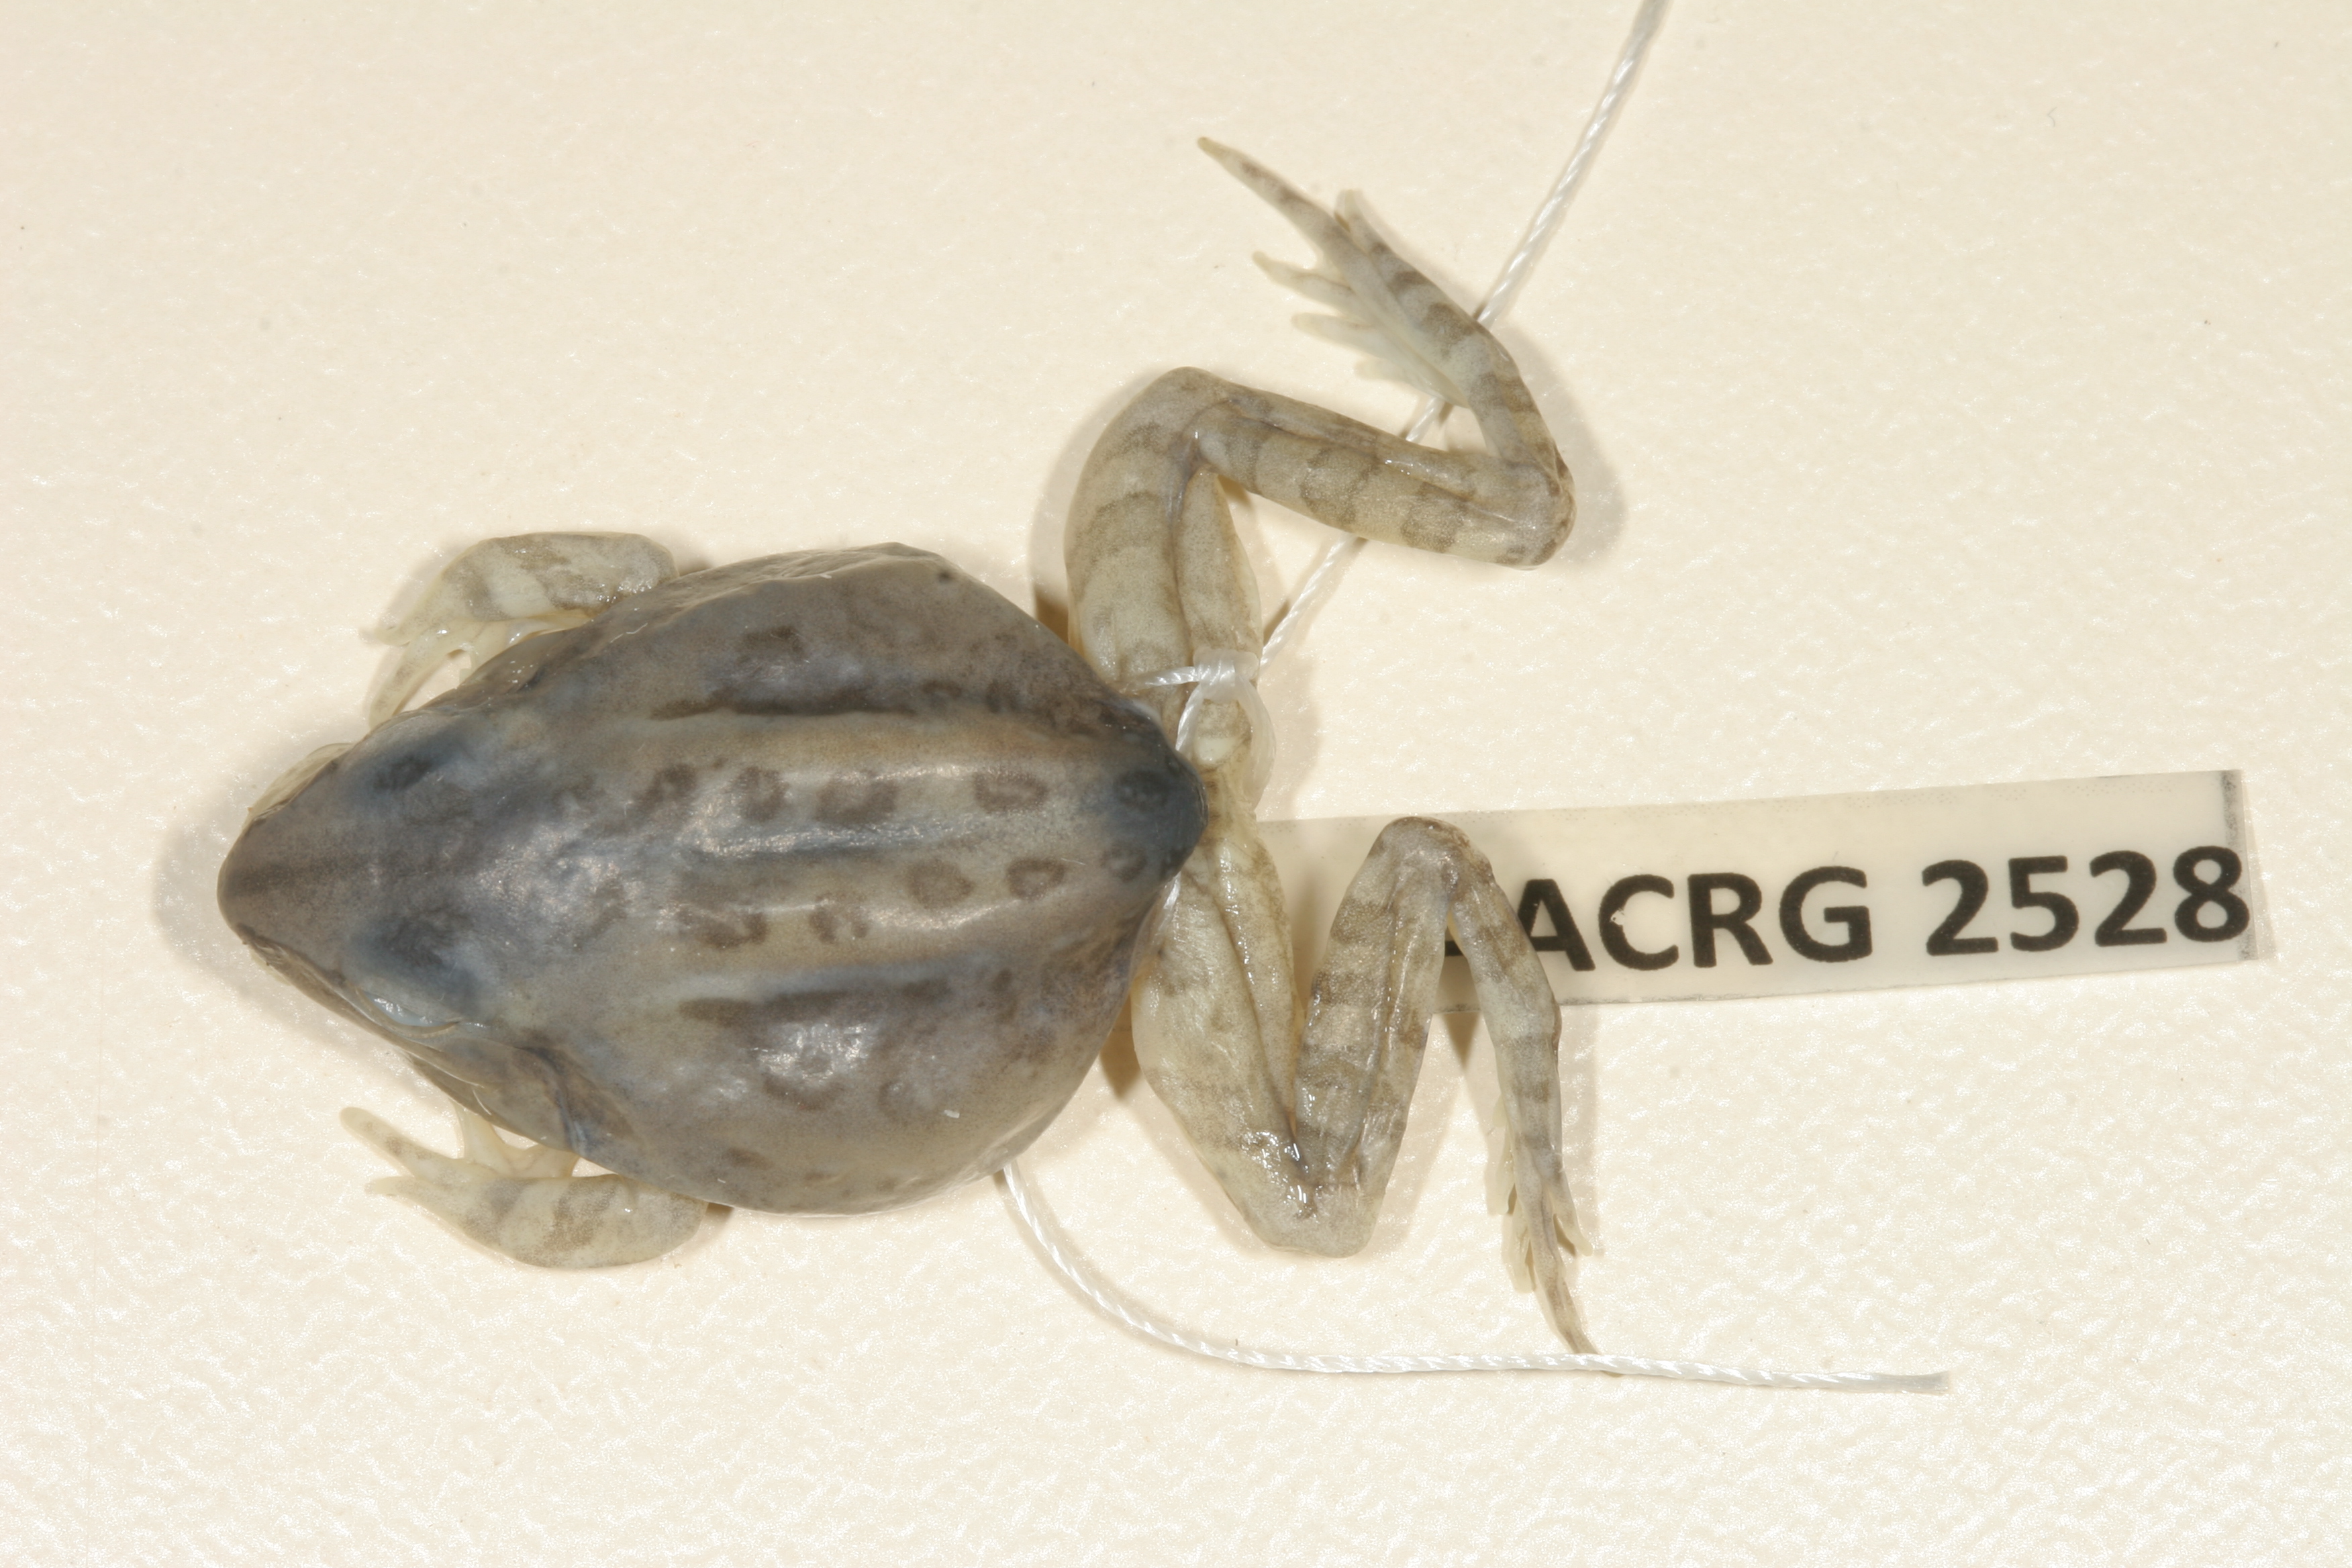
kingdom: Animalia
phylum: Chordata
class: Amphibia
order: Anura
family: Ptychadenidae
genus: Hildebrandtia
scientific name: Hildebrandtia ornata
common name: Ornate frog
